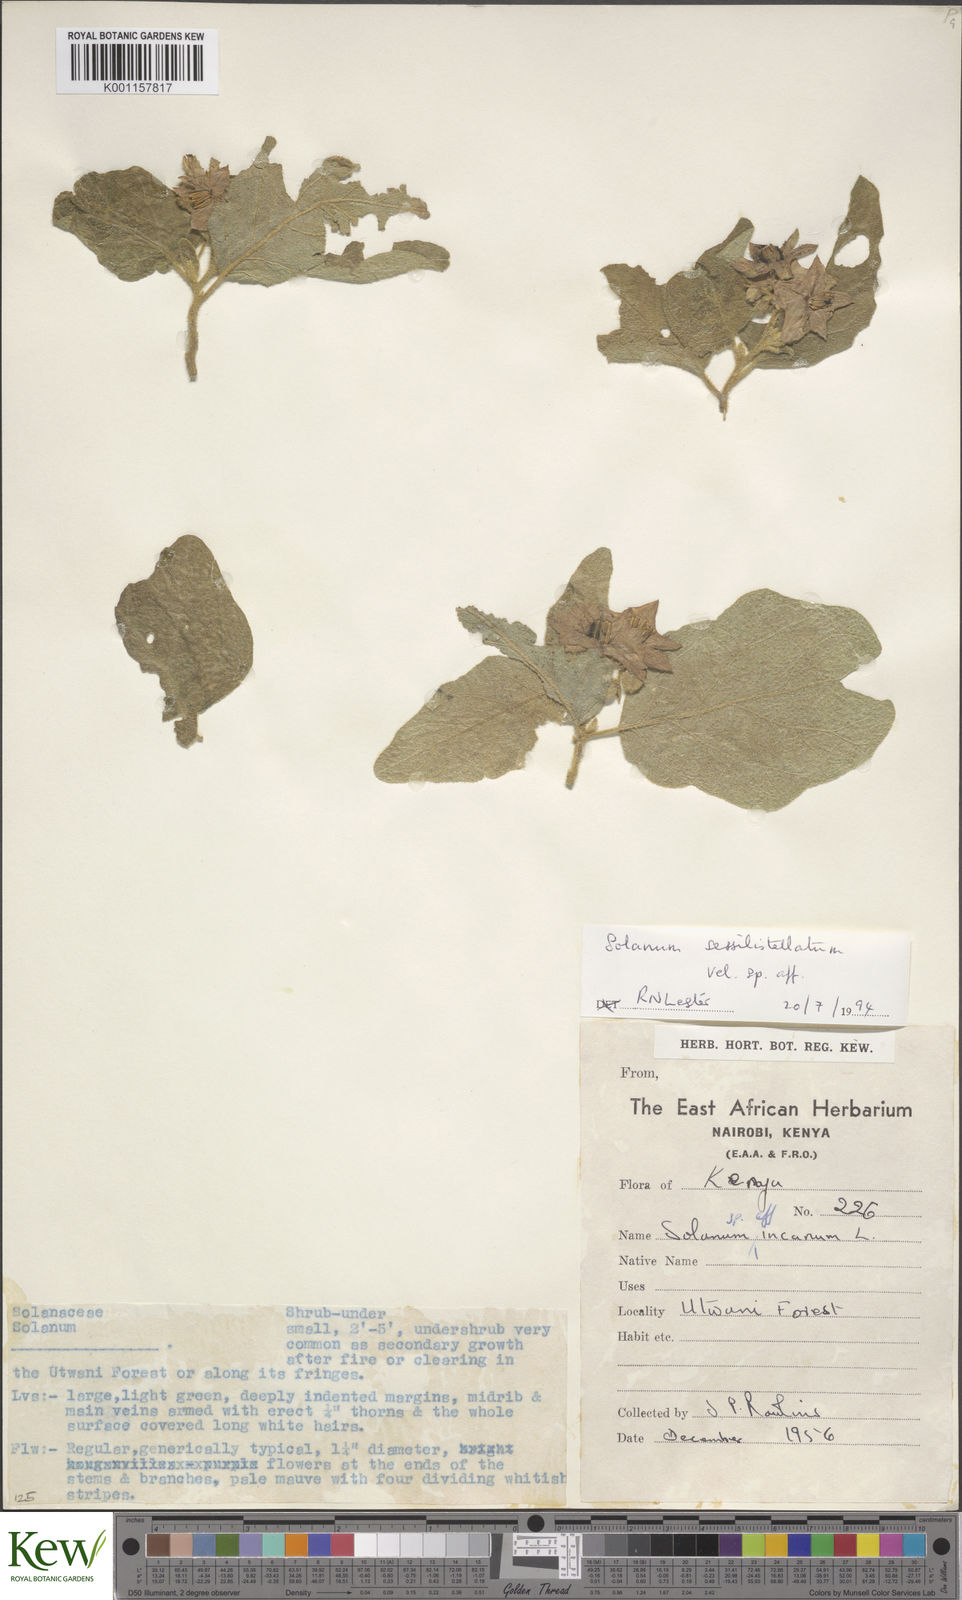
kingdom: Plantae
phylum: Tracheophyta
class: Magnoliopsida
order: Solanales
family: Solanaceae
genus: Solanum
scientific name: Solanum nigriviolaceum
